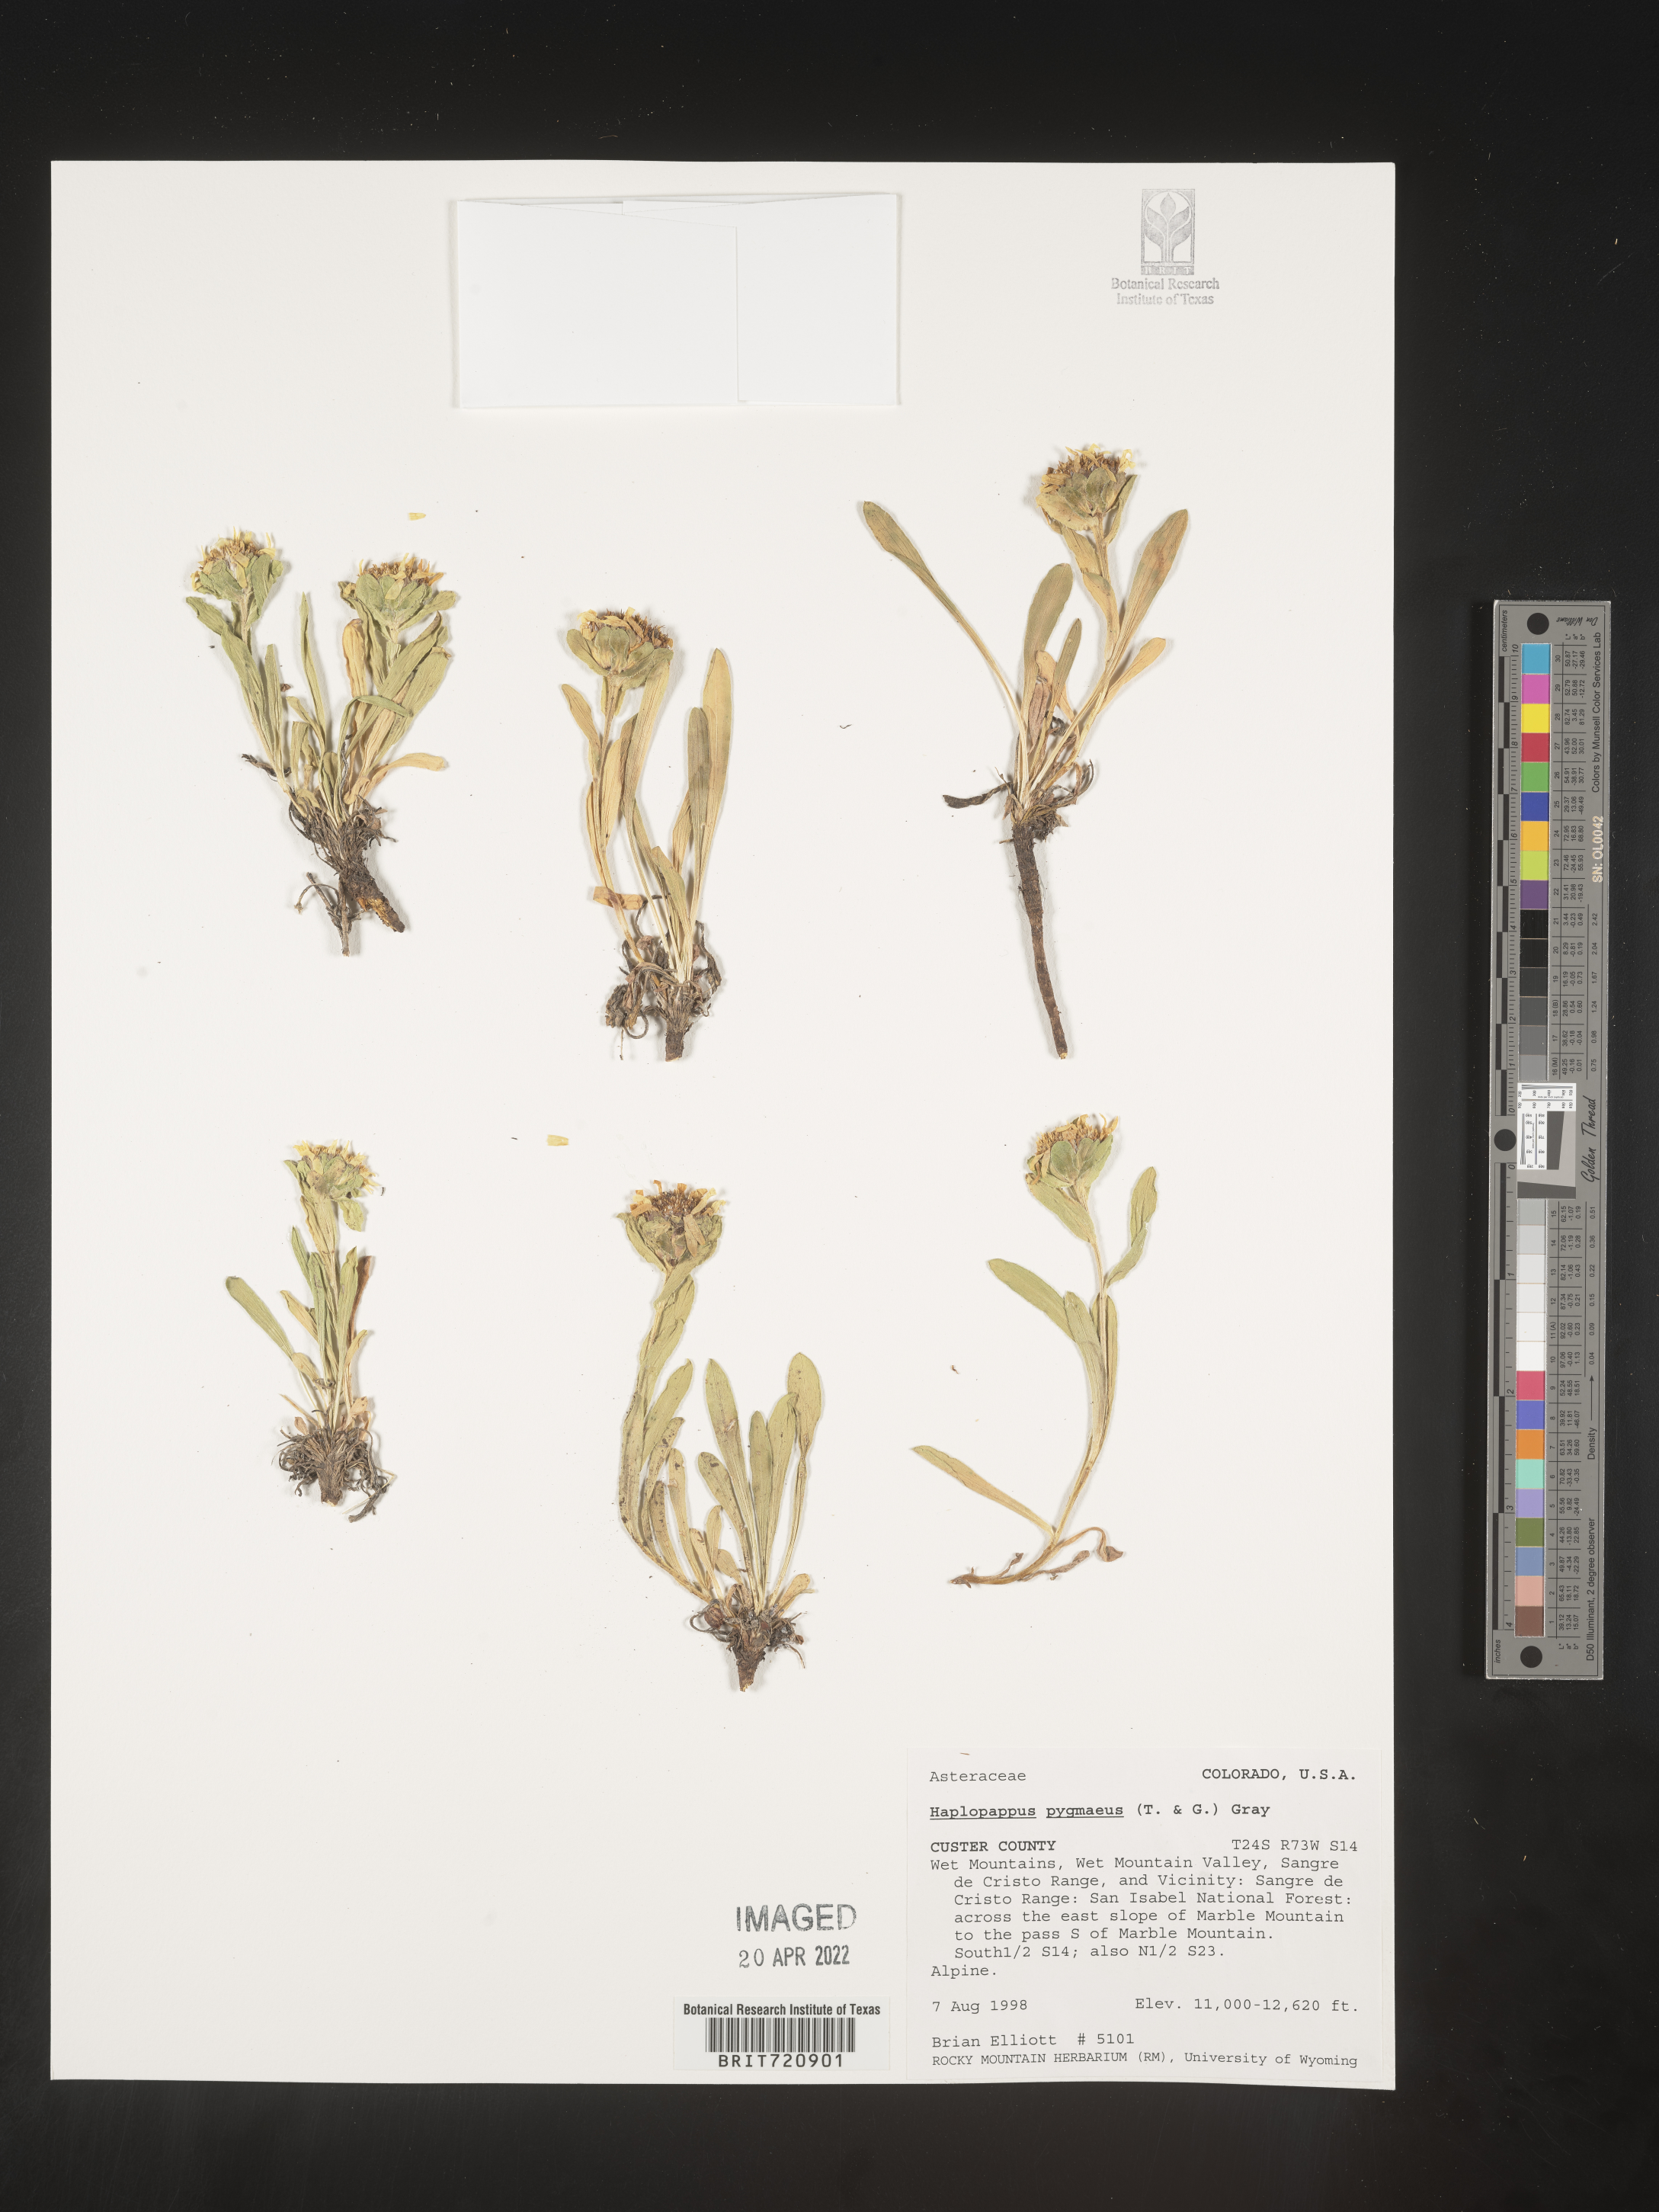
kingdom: Plantae
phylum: Tracheophyta
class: Magnoliopsida
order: Asterales
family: Asteraceae
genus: Haplopappus
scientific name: Haplopappus
